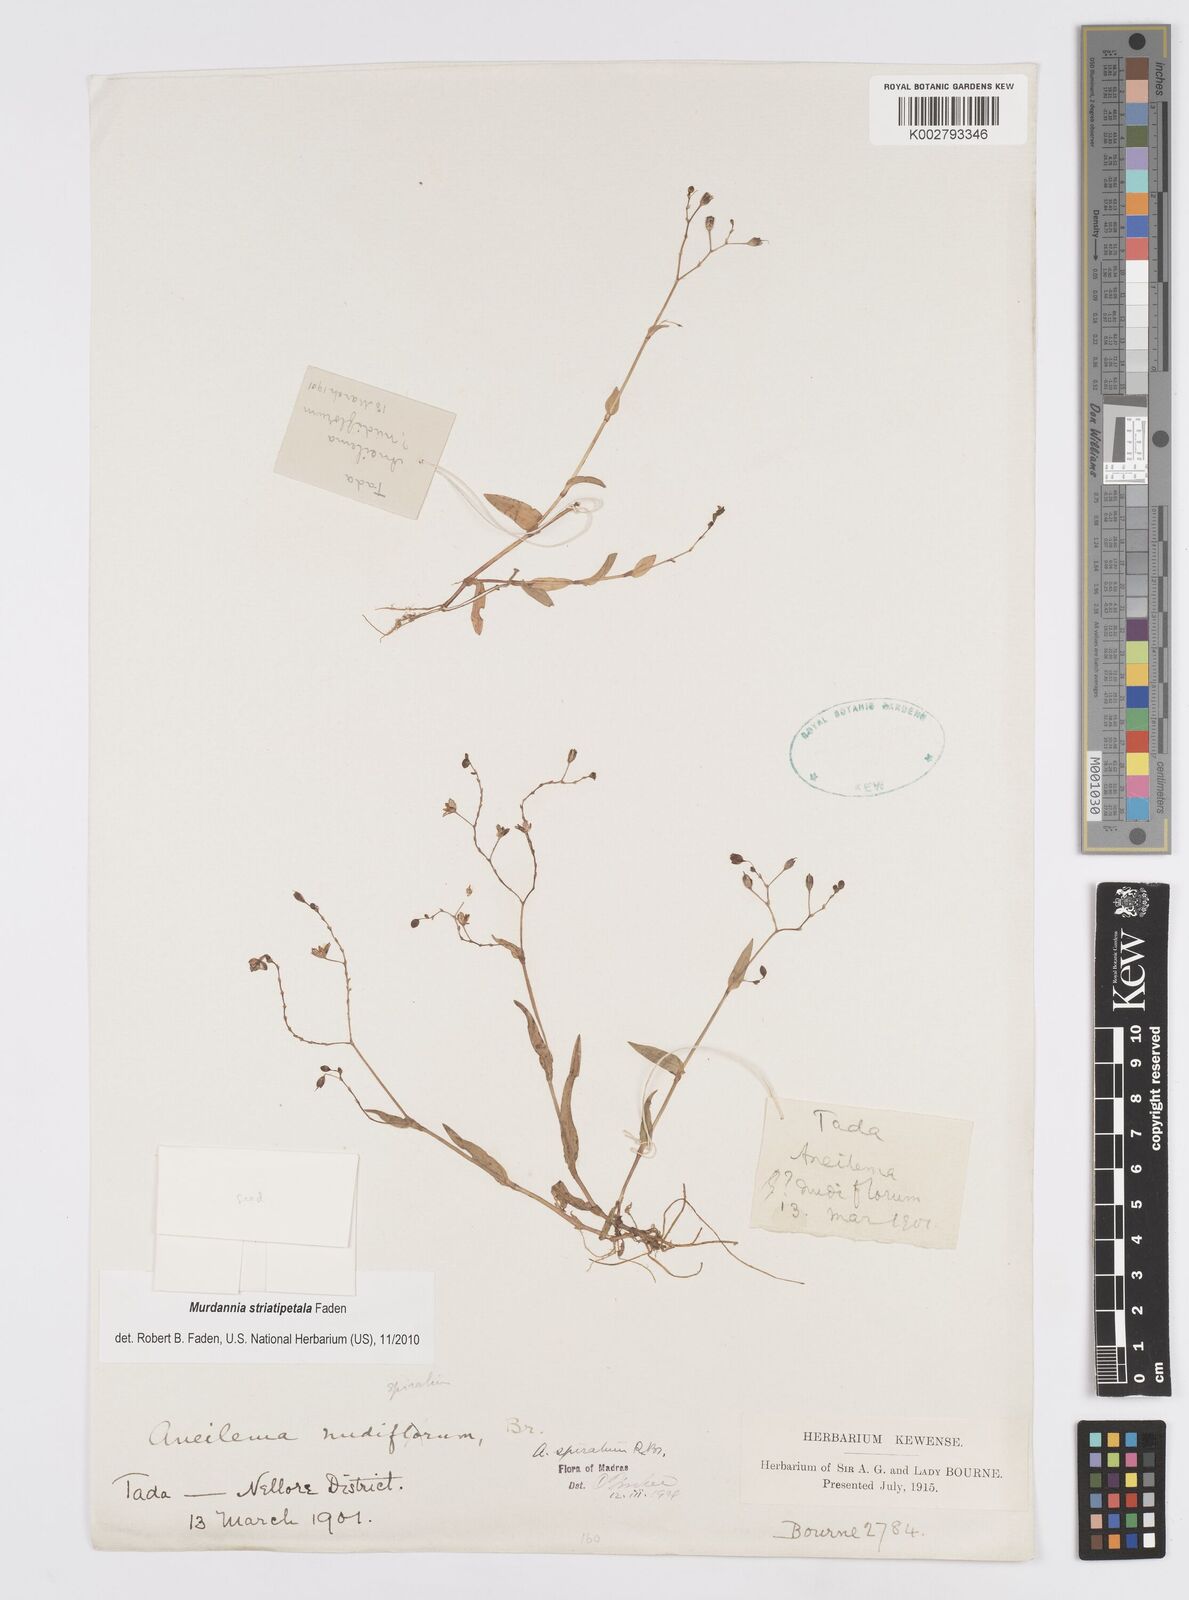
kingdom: Plantae
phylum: Tracheophyta
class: Liliopsida
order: Commelinales
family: Commelinaceae
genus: Murdannia
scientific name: Murdannia striatipetala
